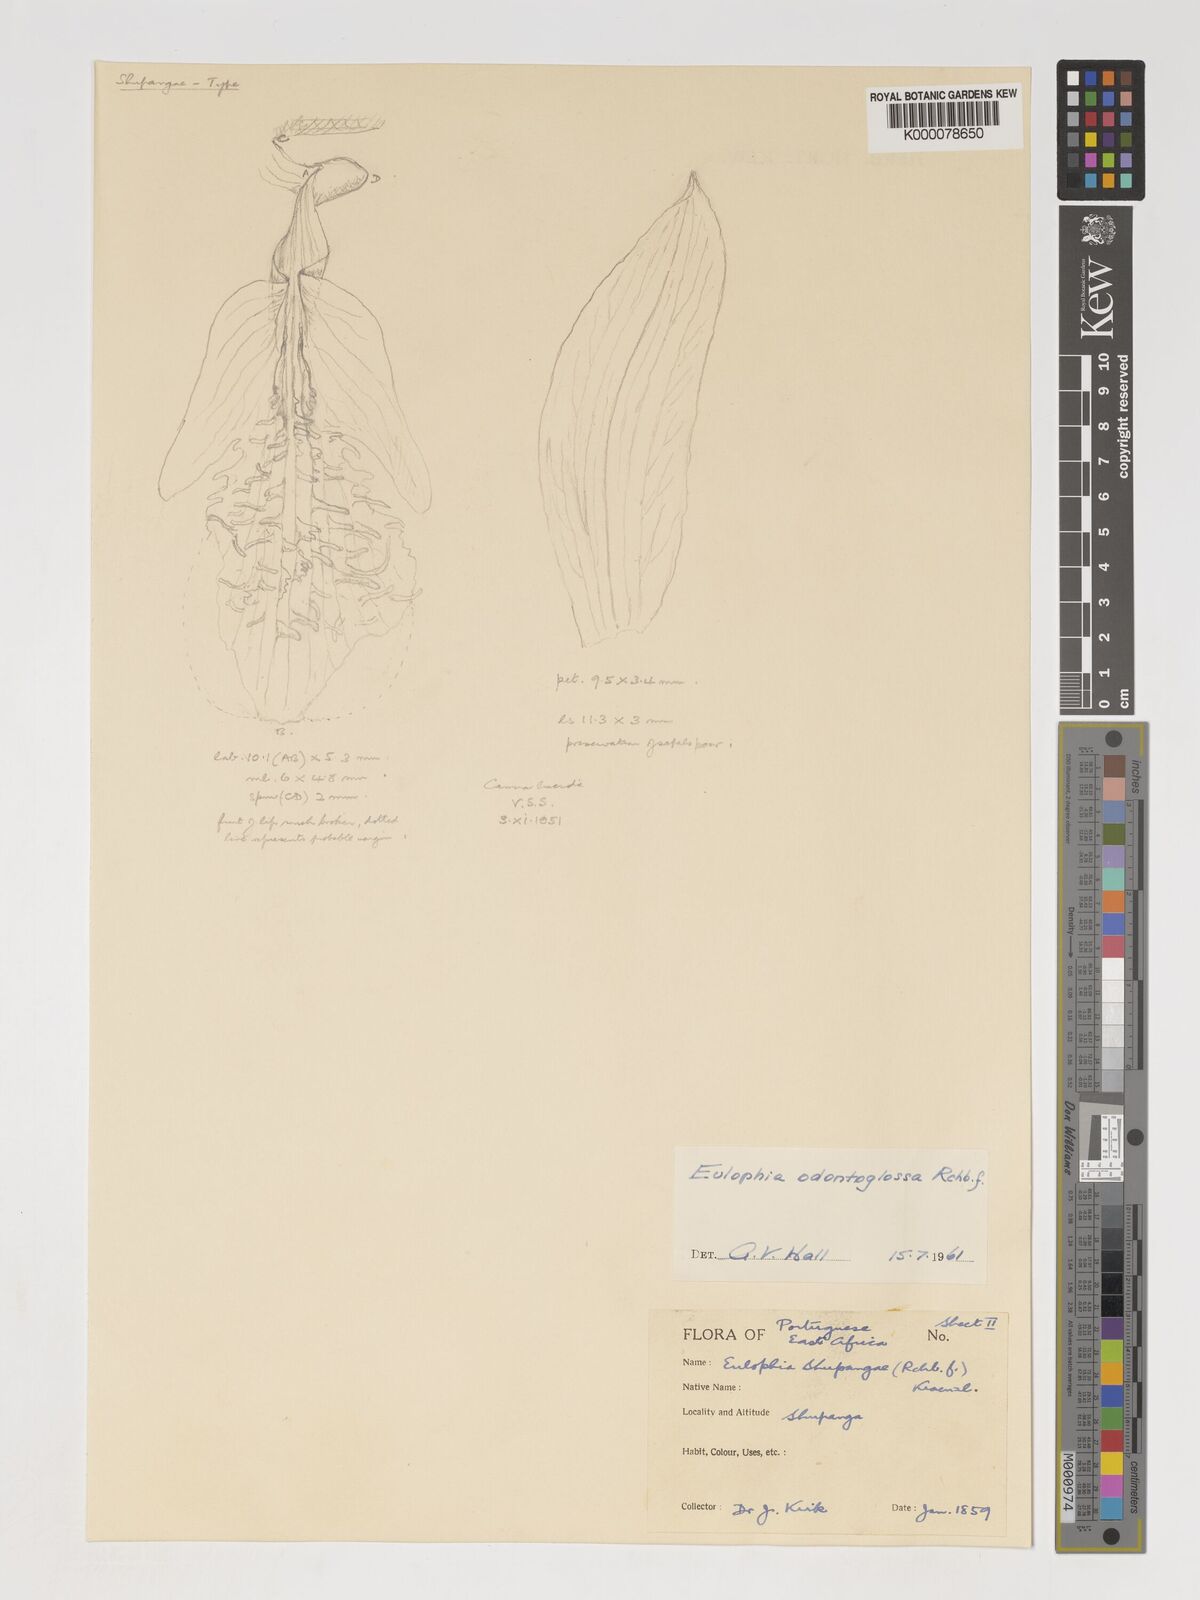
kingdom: Plantae
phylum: Tracheophyta
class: Liliopsida
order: Asparagales
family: Orchidaceae
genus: Eulophia
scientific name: Eulophia odontoglossa
